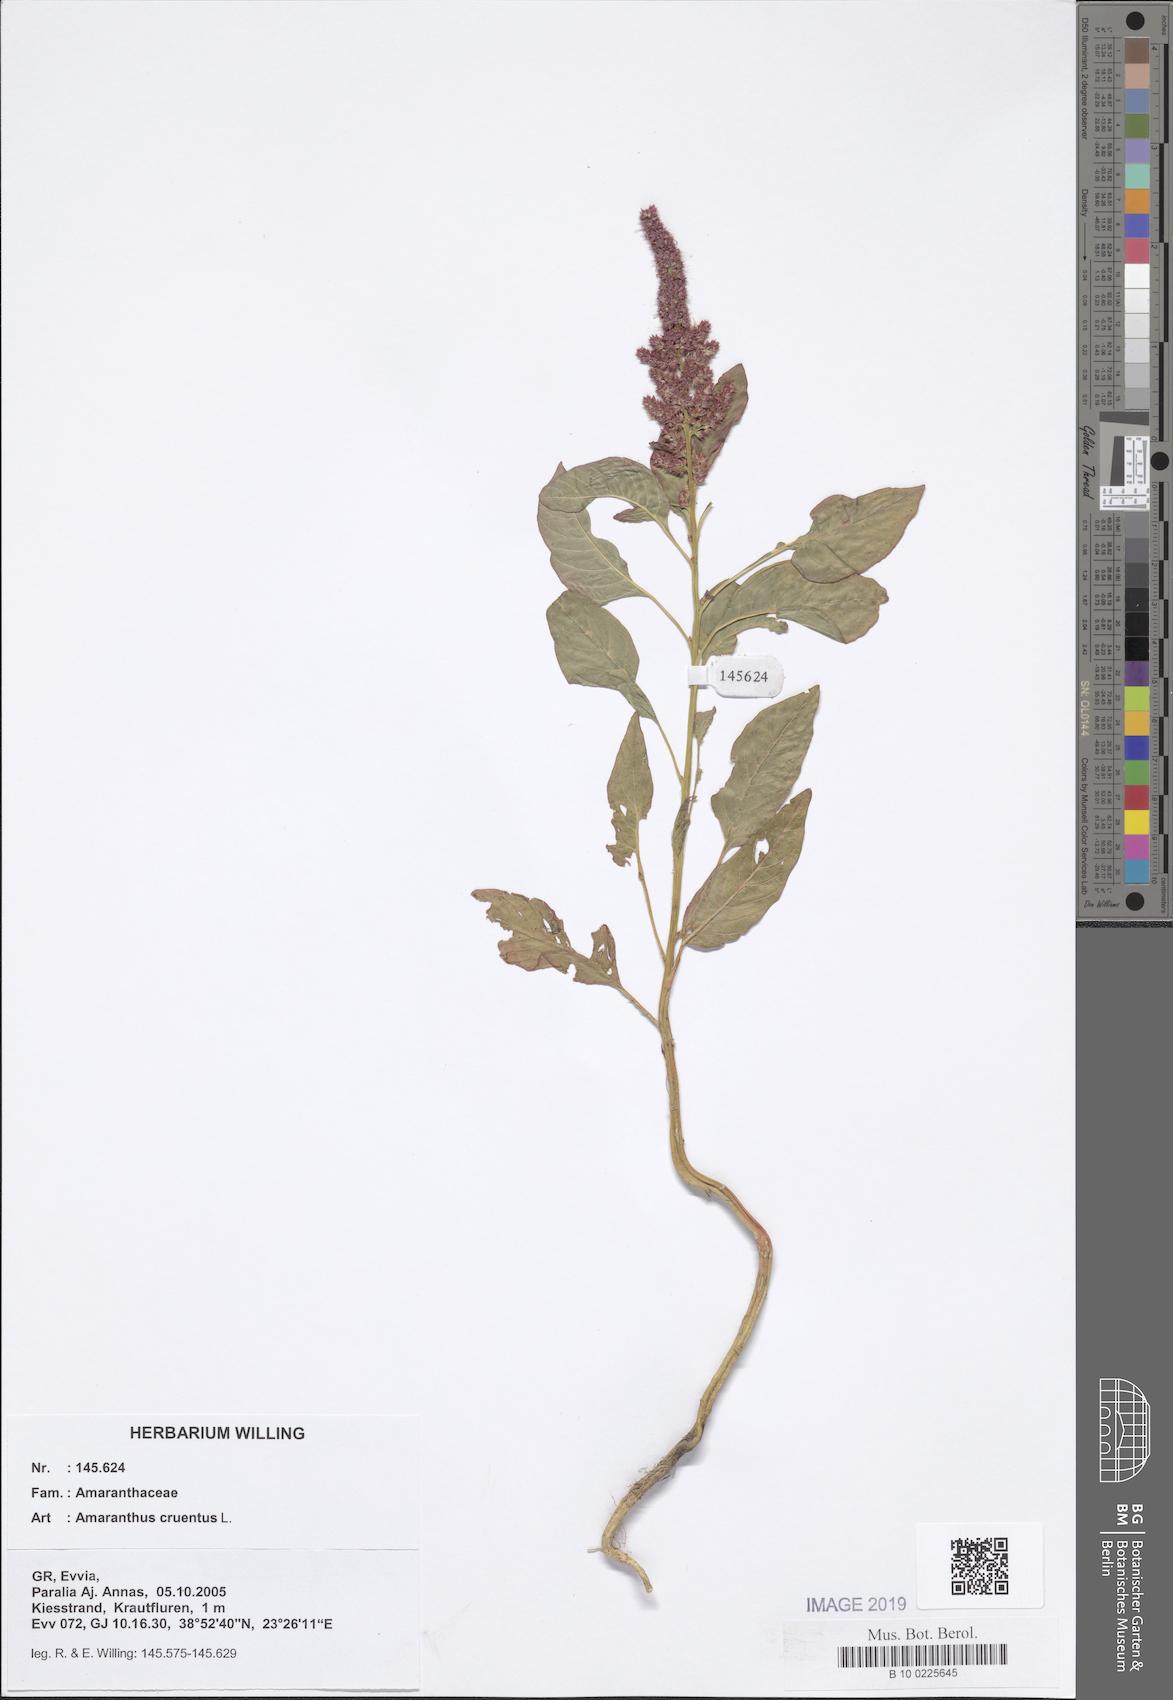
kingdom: Plantae
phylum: Tracheophyta
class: Magnoliopsida
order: Caryophyllales
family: Amaranthaceae
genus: Amaranthus
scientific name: Amaranthus cruentus
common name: Purple amaranth
